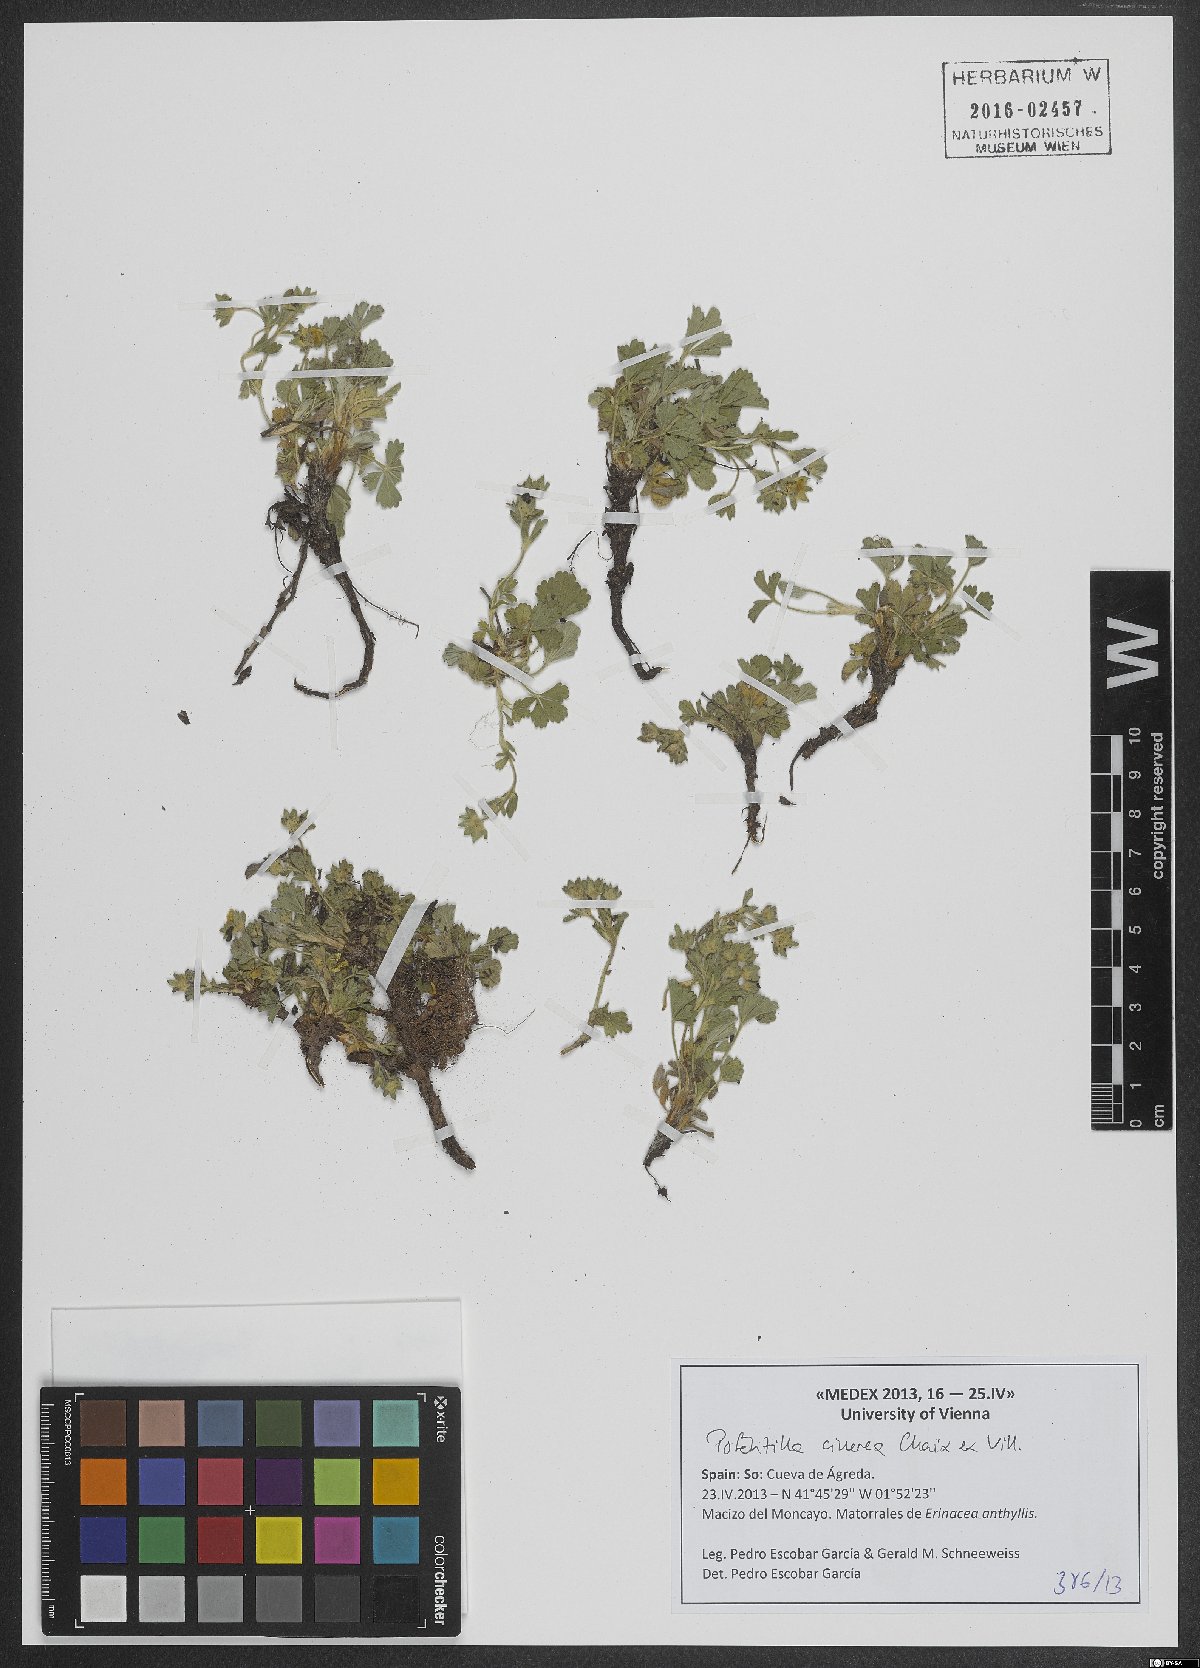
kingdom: Plantae
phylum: Tracheophyta
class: Magnoliopsida
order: Rosales
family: Rosaceae
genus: Potentilla
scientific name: Potentilla cinerea
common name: Ashy cinquefoil
